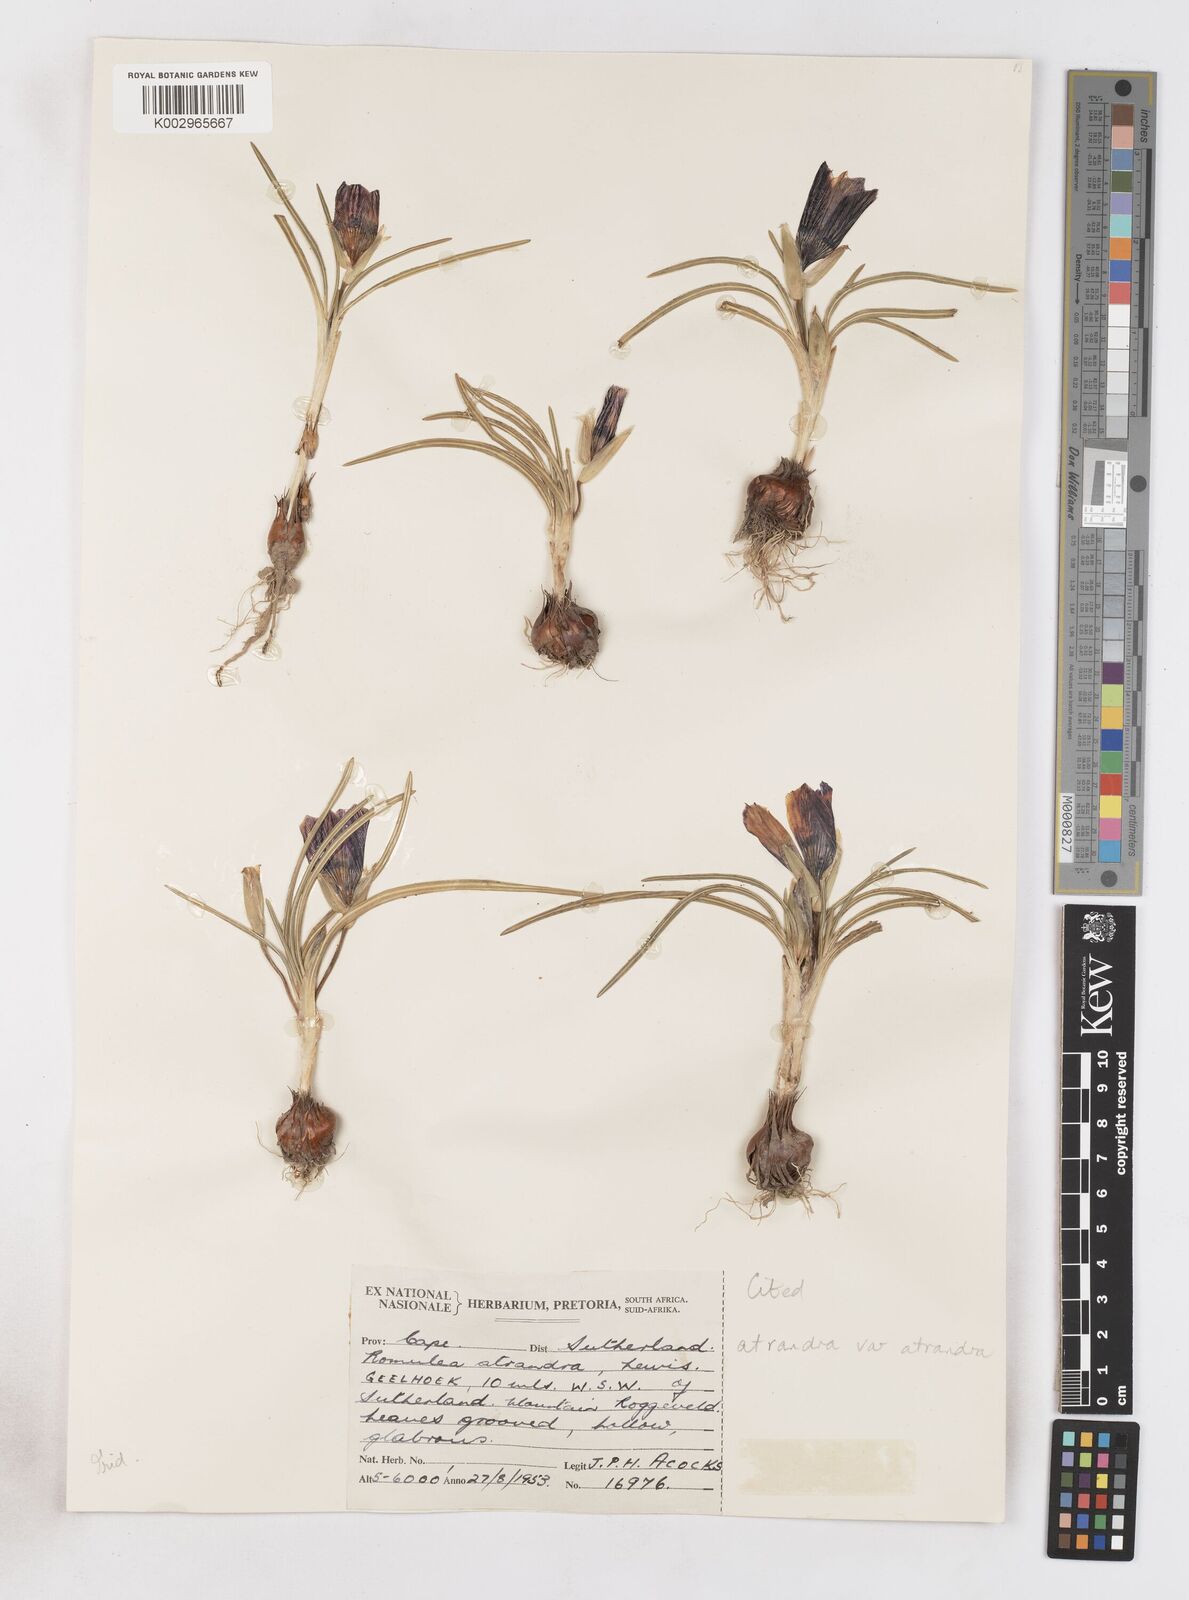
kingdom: Plantae
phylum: Tracheophyta
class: Liliopsida
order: Asparagales
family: Iridaceae
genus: Romulea
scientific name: Romulea atrandra
